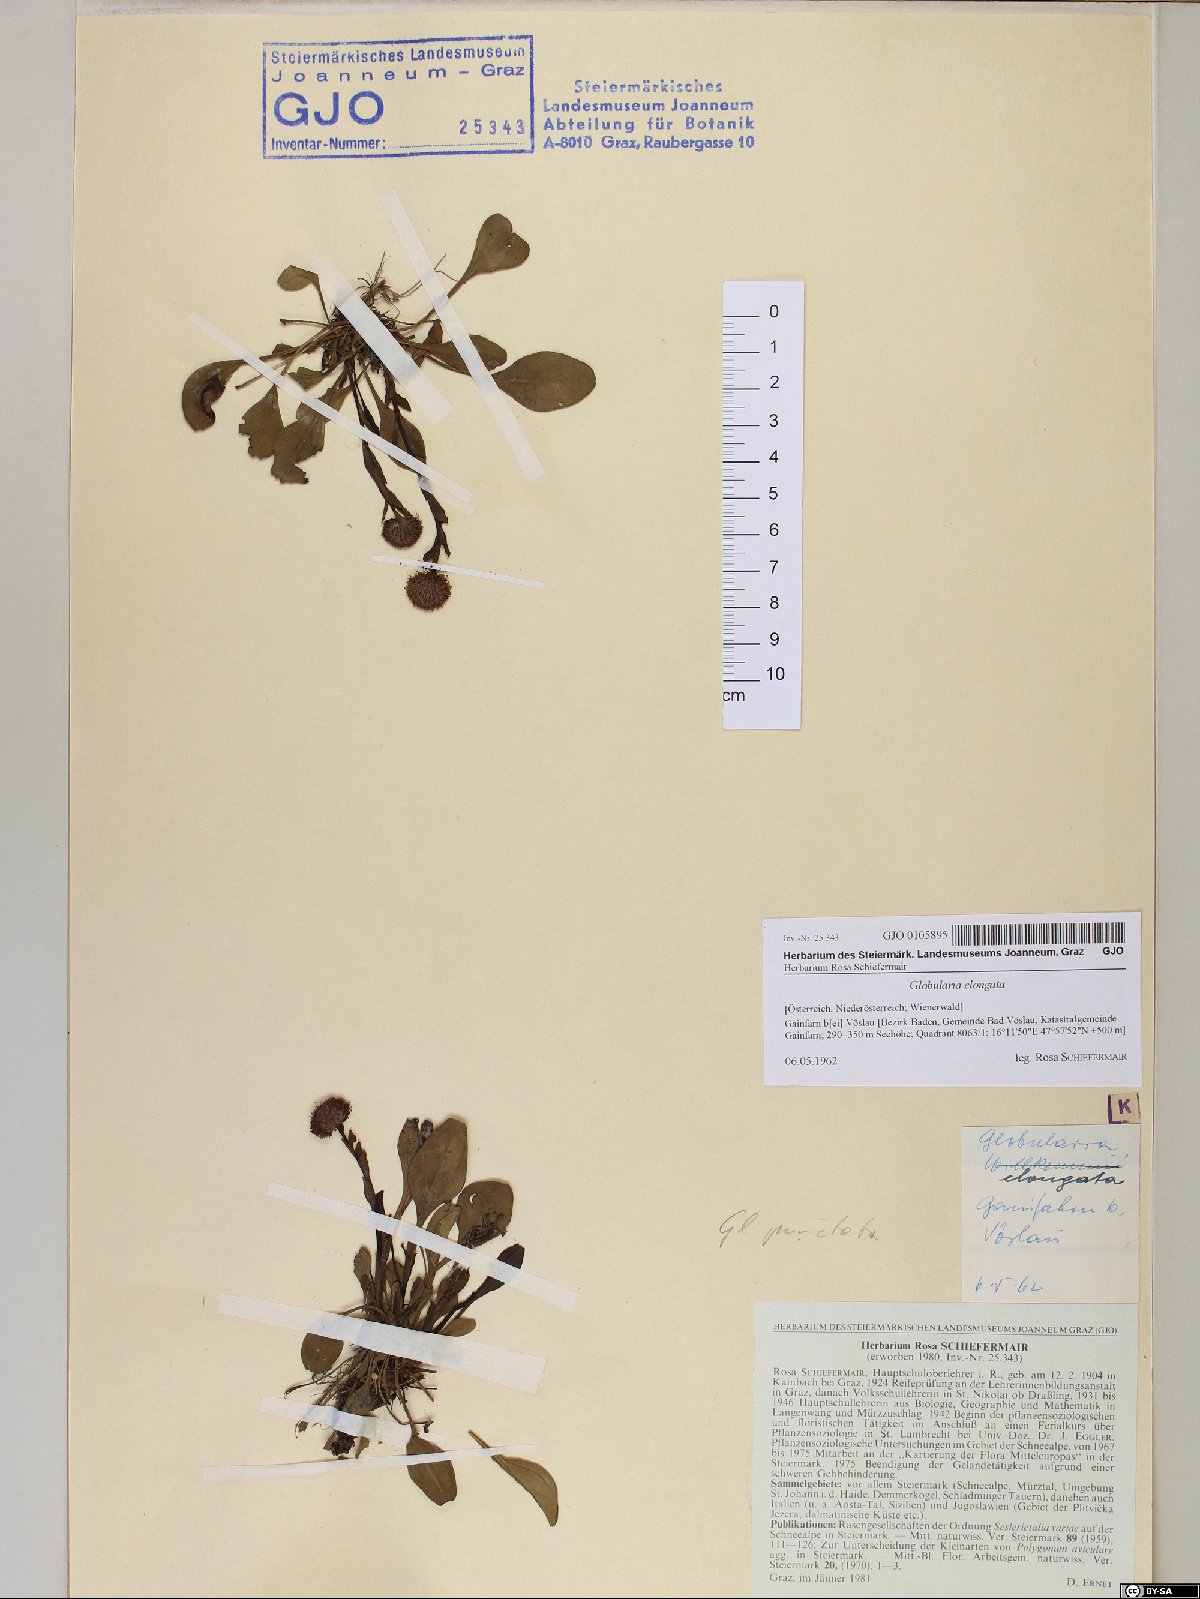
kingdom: Plantae
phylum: Tracheophyta
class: Magnoliopsida
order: Lamiales
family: Plantaginaceae
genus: Globularia
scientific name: Globularia bisnagarica
